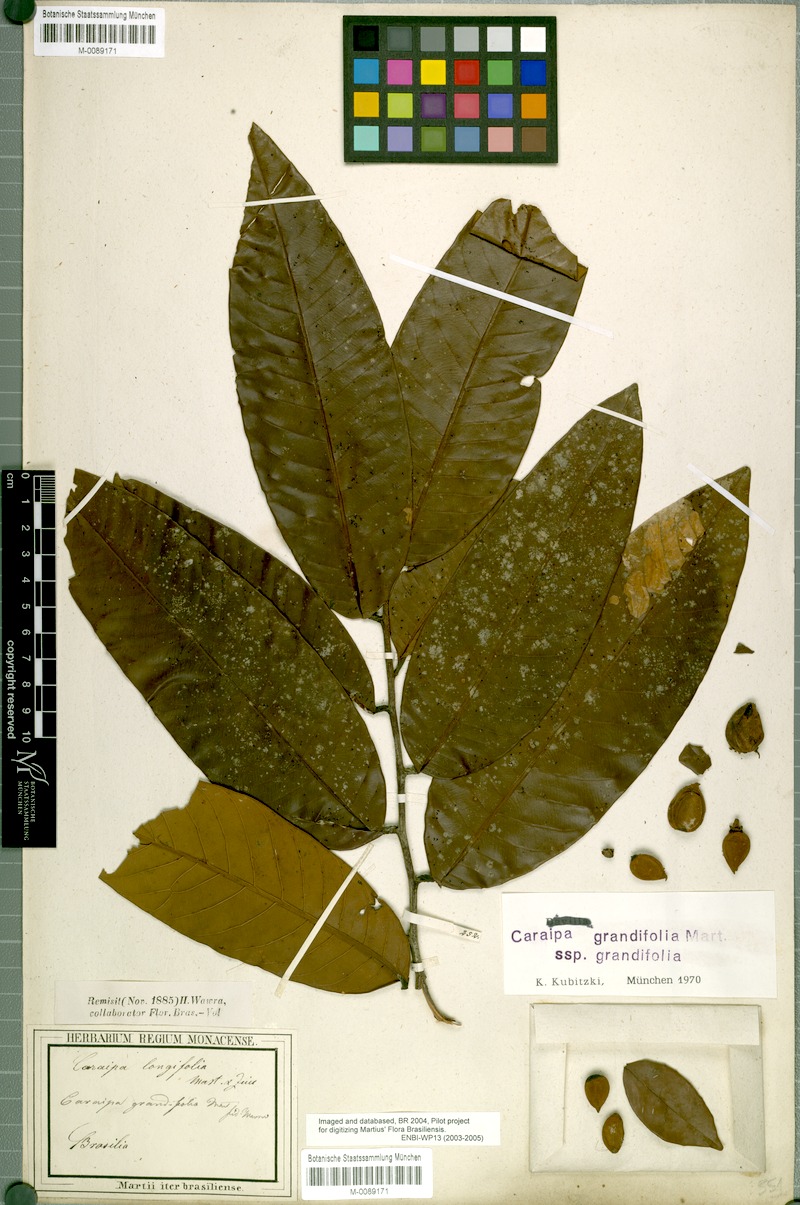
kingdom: Plantae
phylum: Tracheophyta
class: Magnoliopsida
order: Malpighiales
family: Calophyllaceae
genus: Caraipa
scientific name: Caraipa grandifolia
